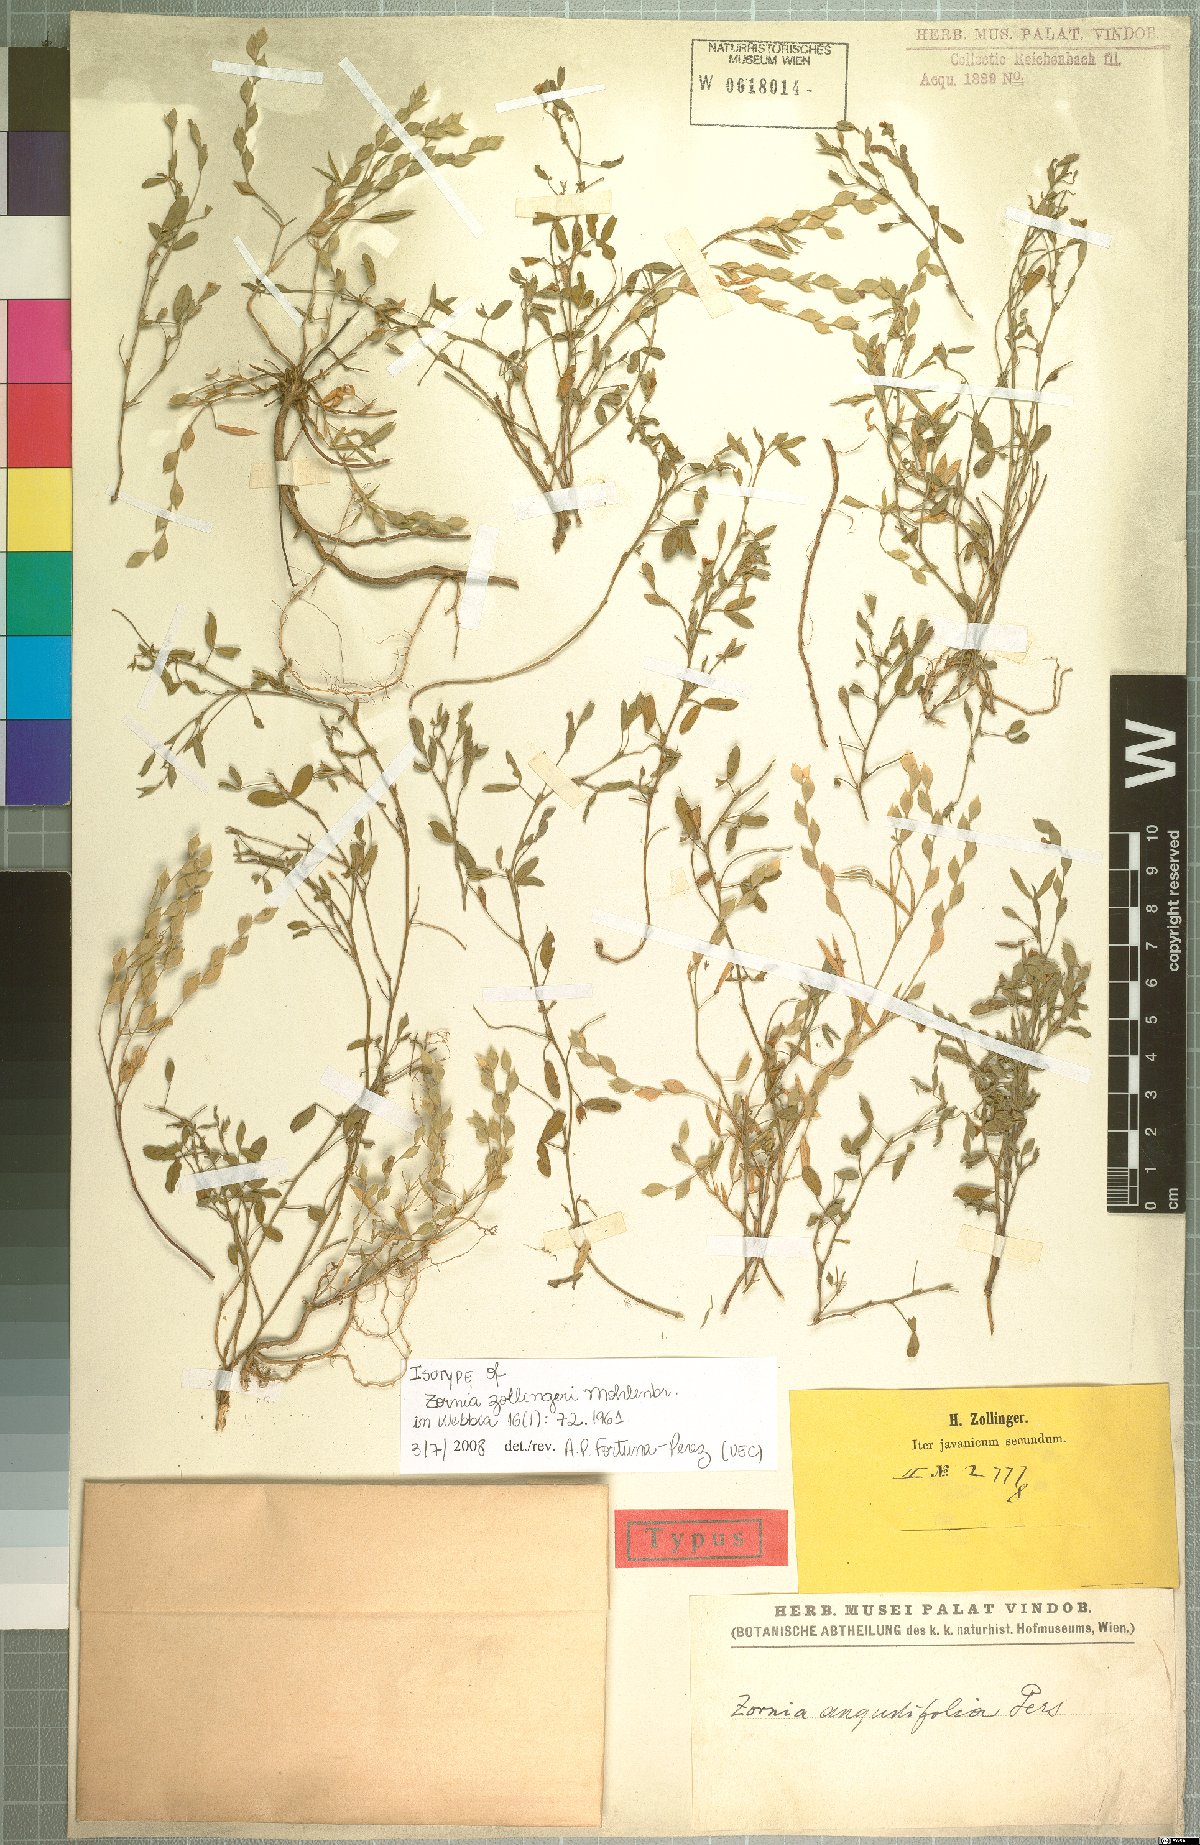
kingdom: Plantae
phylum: Tracheophyta
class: Magnoliopsida
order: Fabales
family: Fabaceae
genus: Zornia
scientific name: Zornia zollingeri
